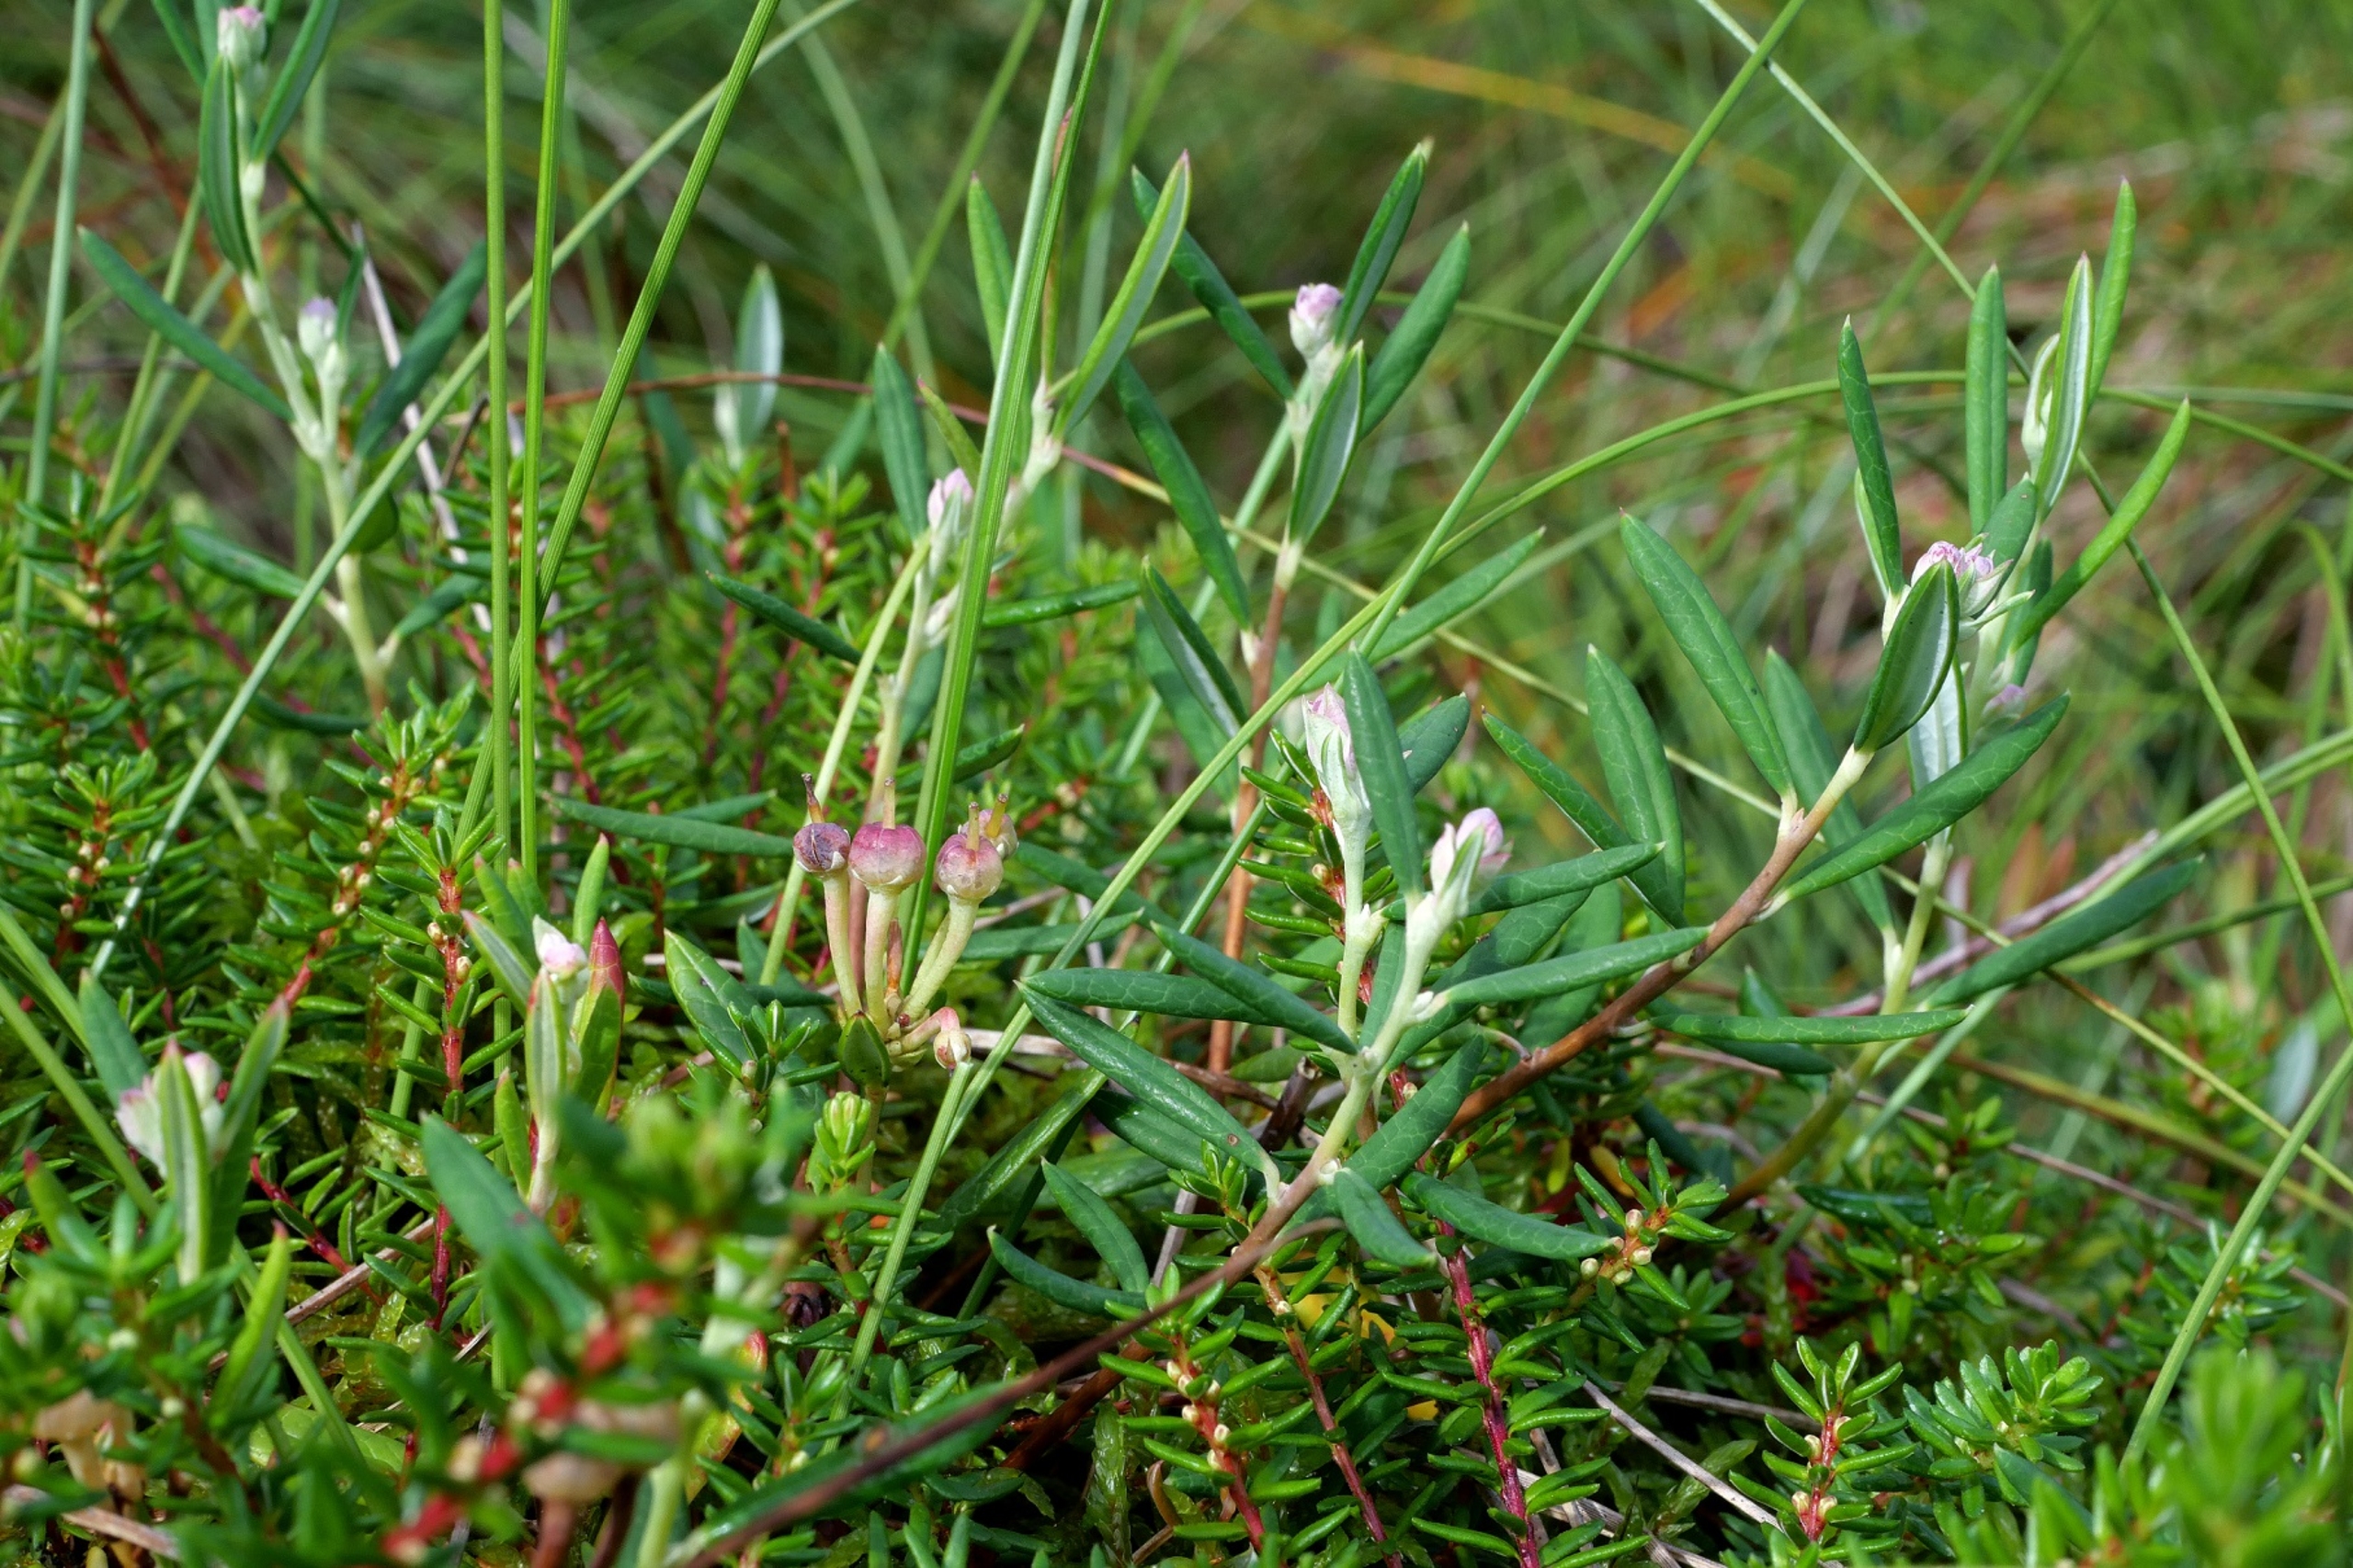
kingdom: Plantae
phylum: Tracheophyta
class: Magnoliopsida
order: Ericales
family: Ericaceae
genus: Andromeda
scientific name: Andromeda polifolia
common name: Rosmarinlyng
